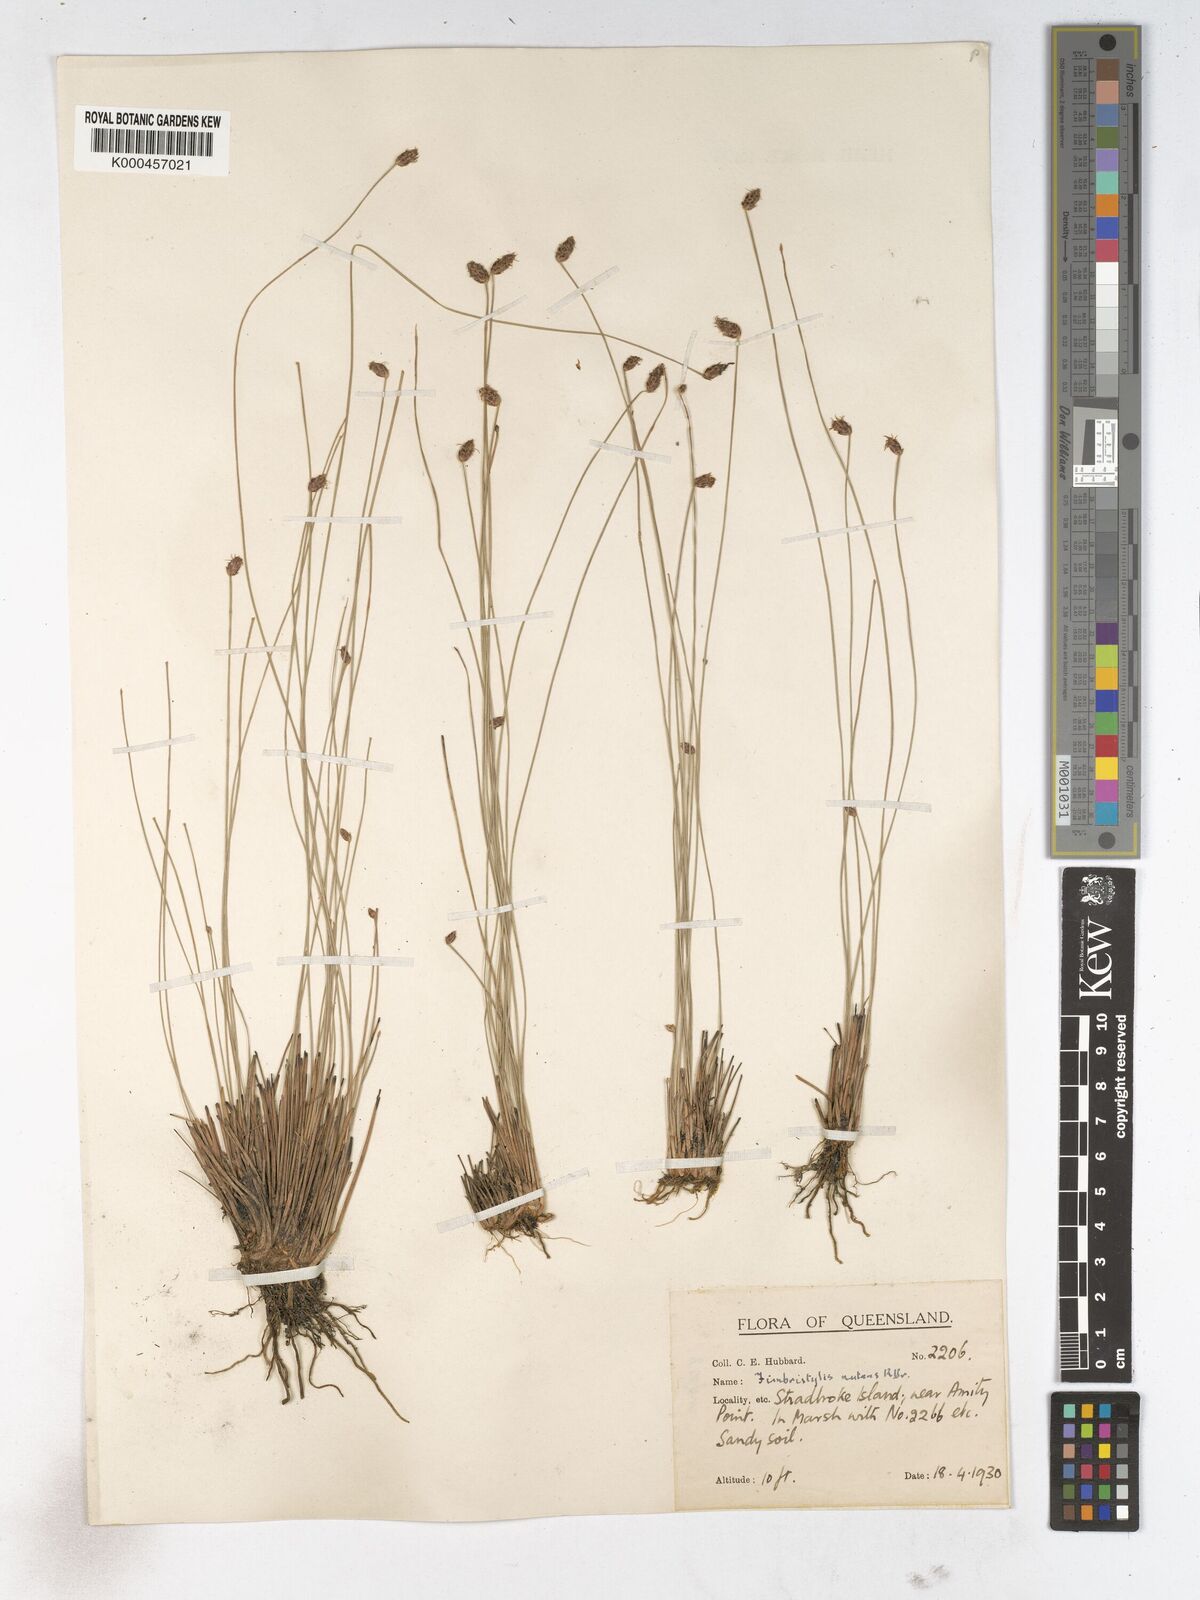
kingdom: Plantae
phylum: Tracheophyta
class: Liliopsida
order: Poales
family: Cyperaceae
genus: Fimbristylis
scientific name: Fimbristylis nutans
